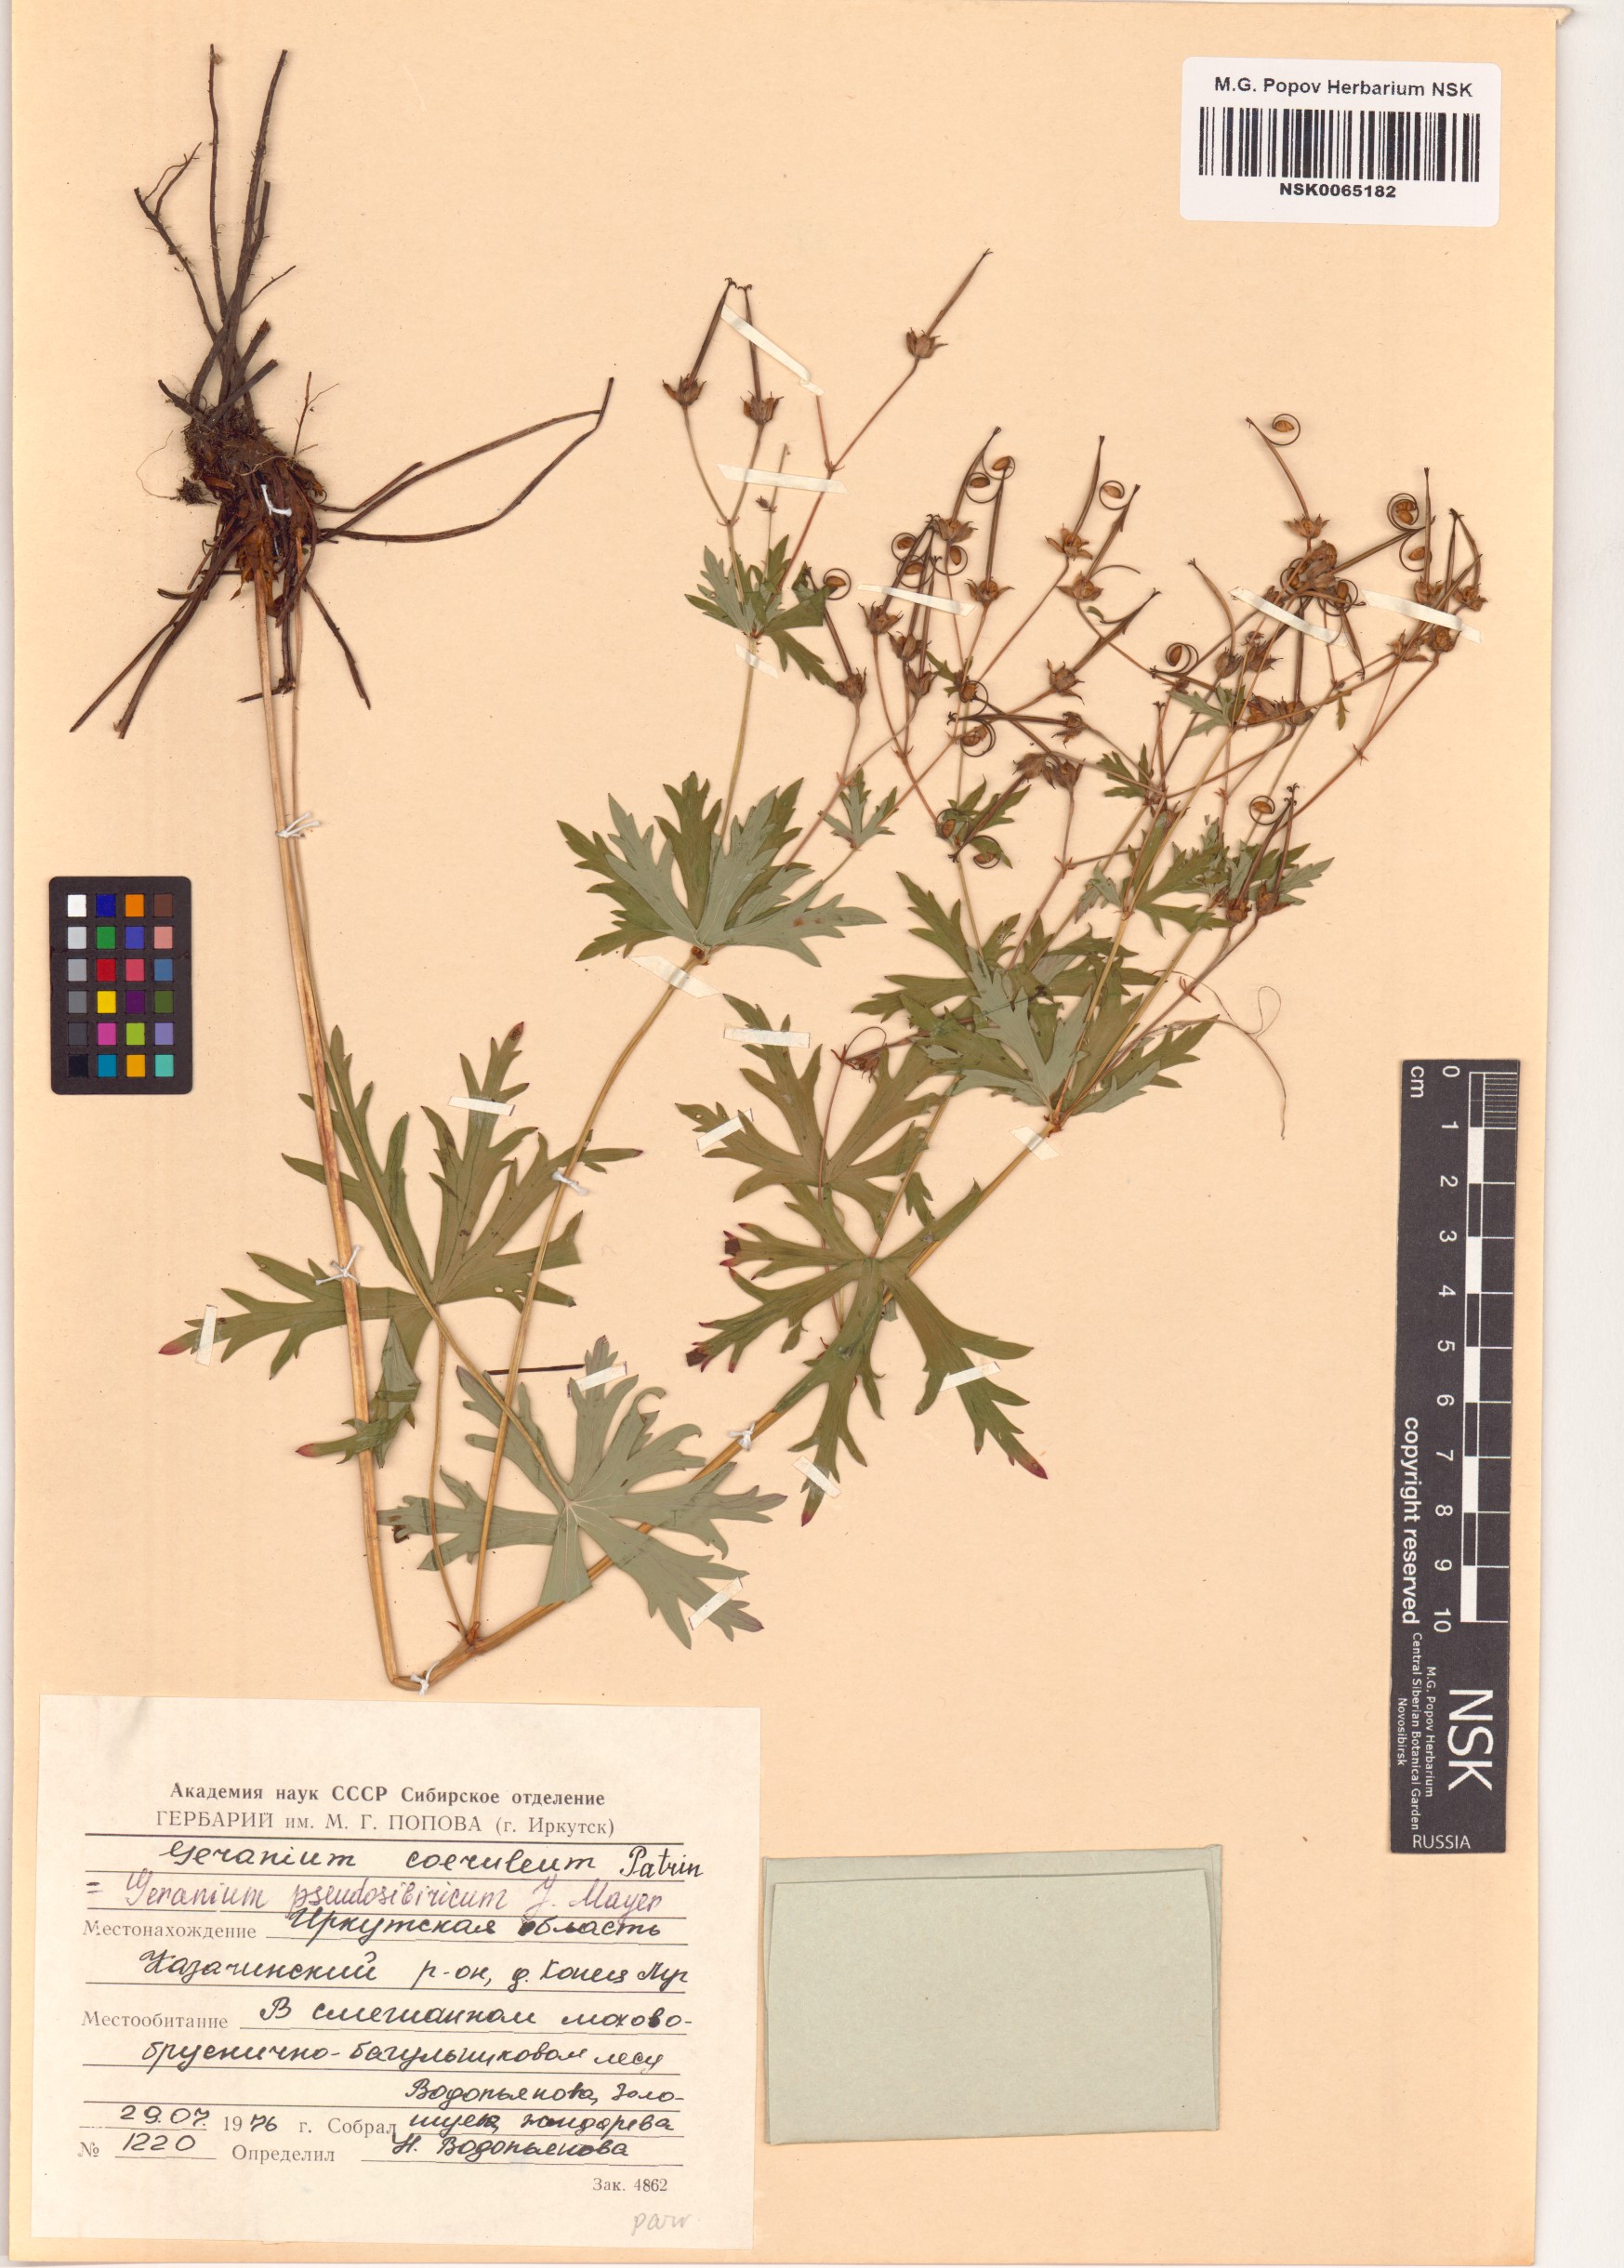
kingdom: Plantae
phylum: Tracheophyta
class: Magnoliopsida
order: Geraniales
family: Geraniaceae
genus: Geranium
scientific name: Geranium pseudosibiricum
